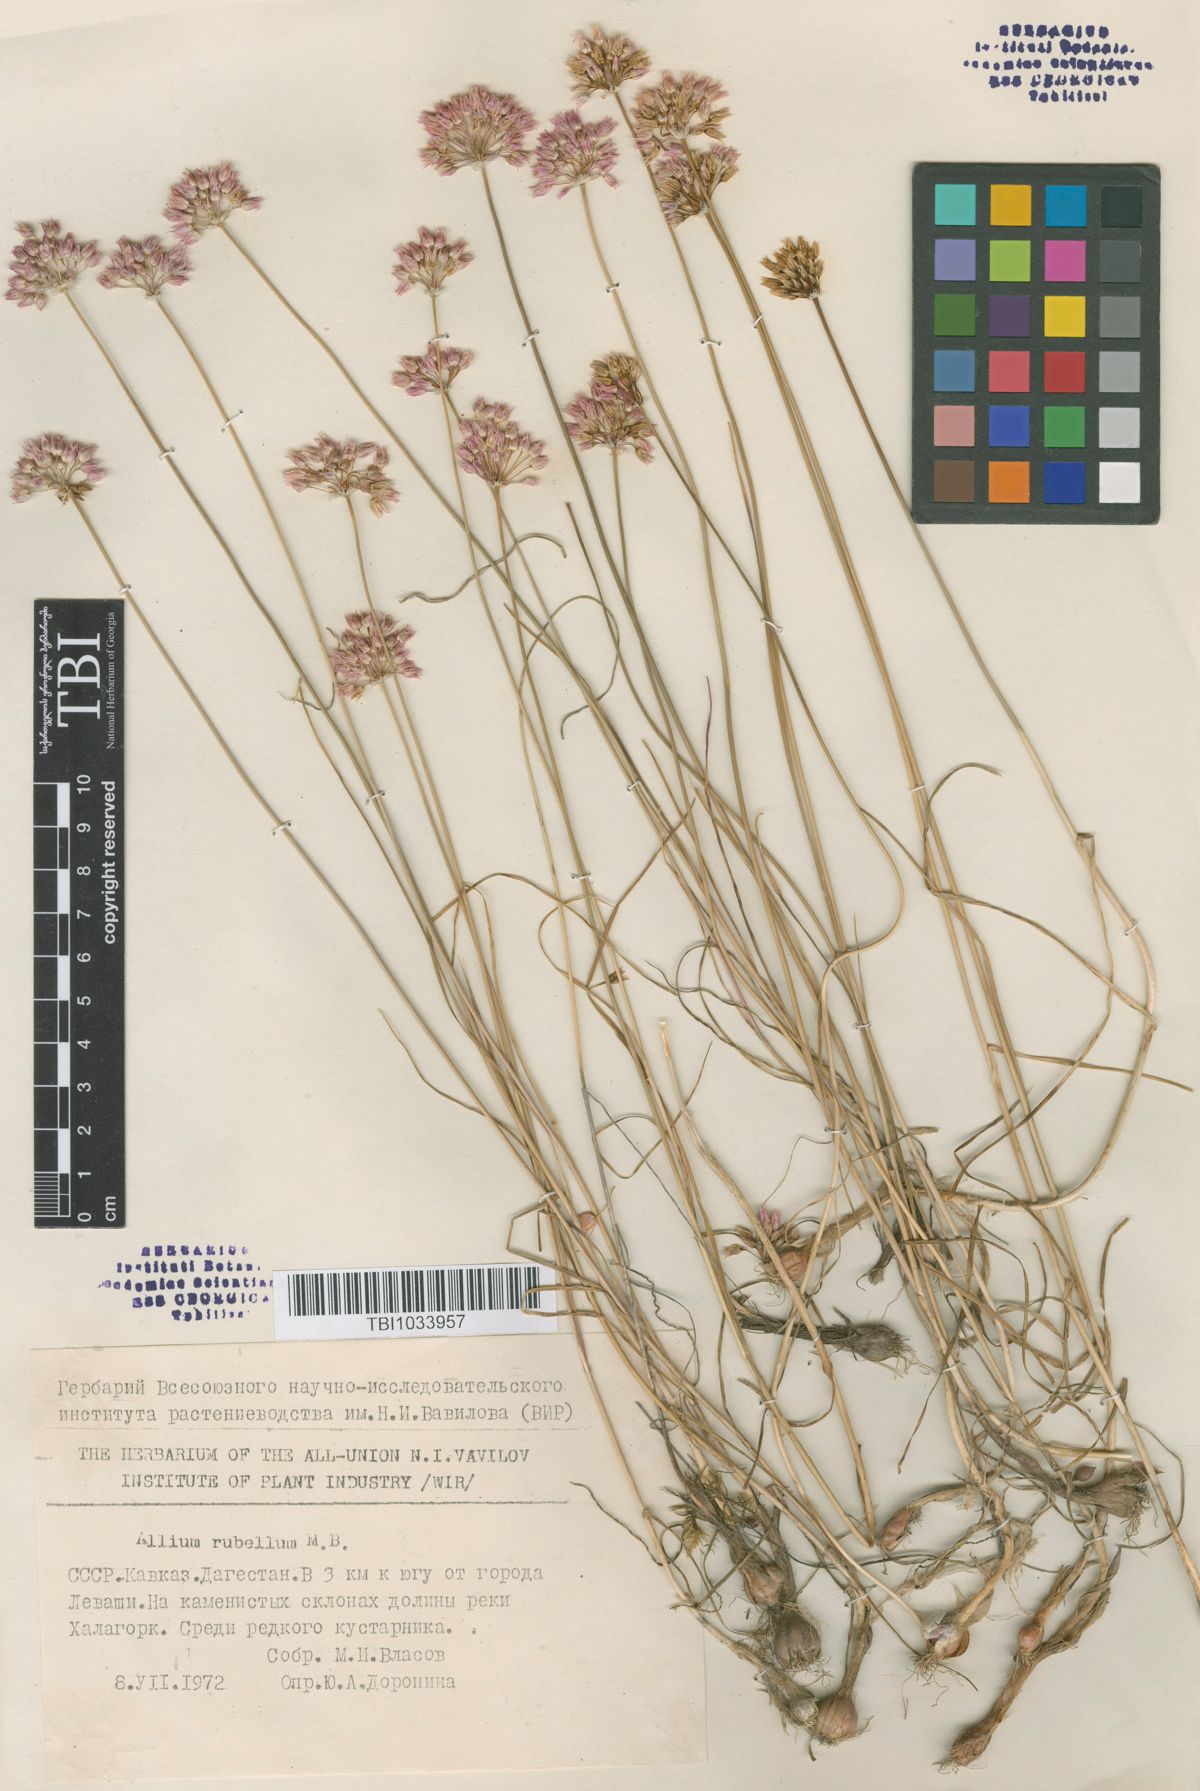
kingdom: Plantae
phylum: Tracheophyta
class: Liliopsida
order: Asparagales
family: Amaryllidaceae
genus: Allium
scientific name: Allium rubellum
